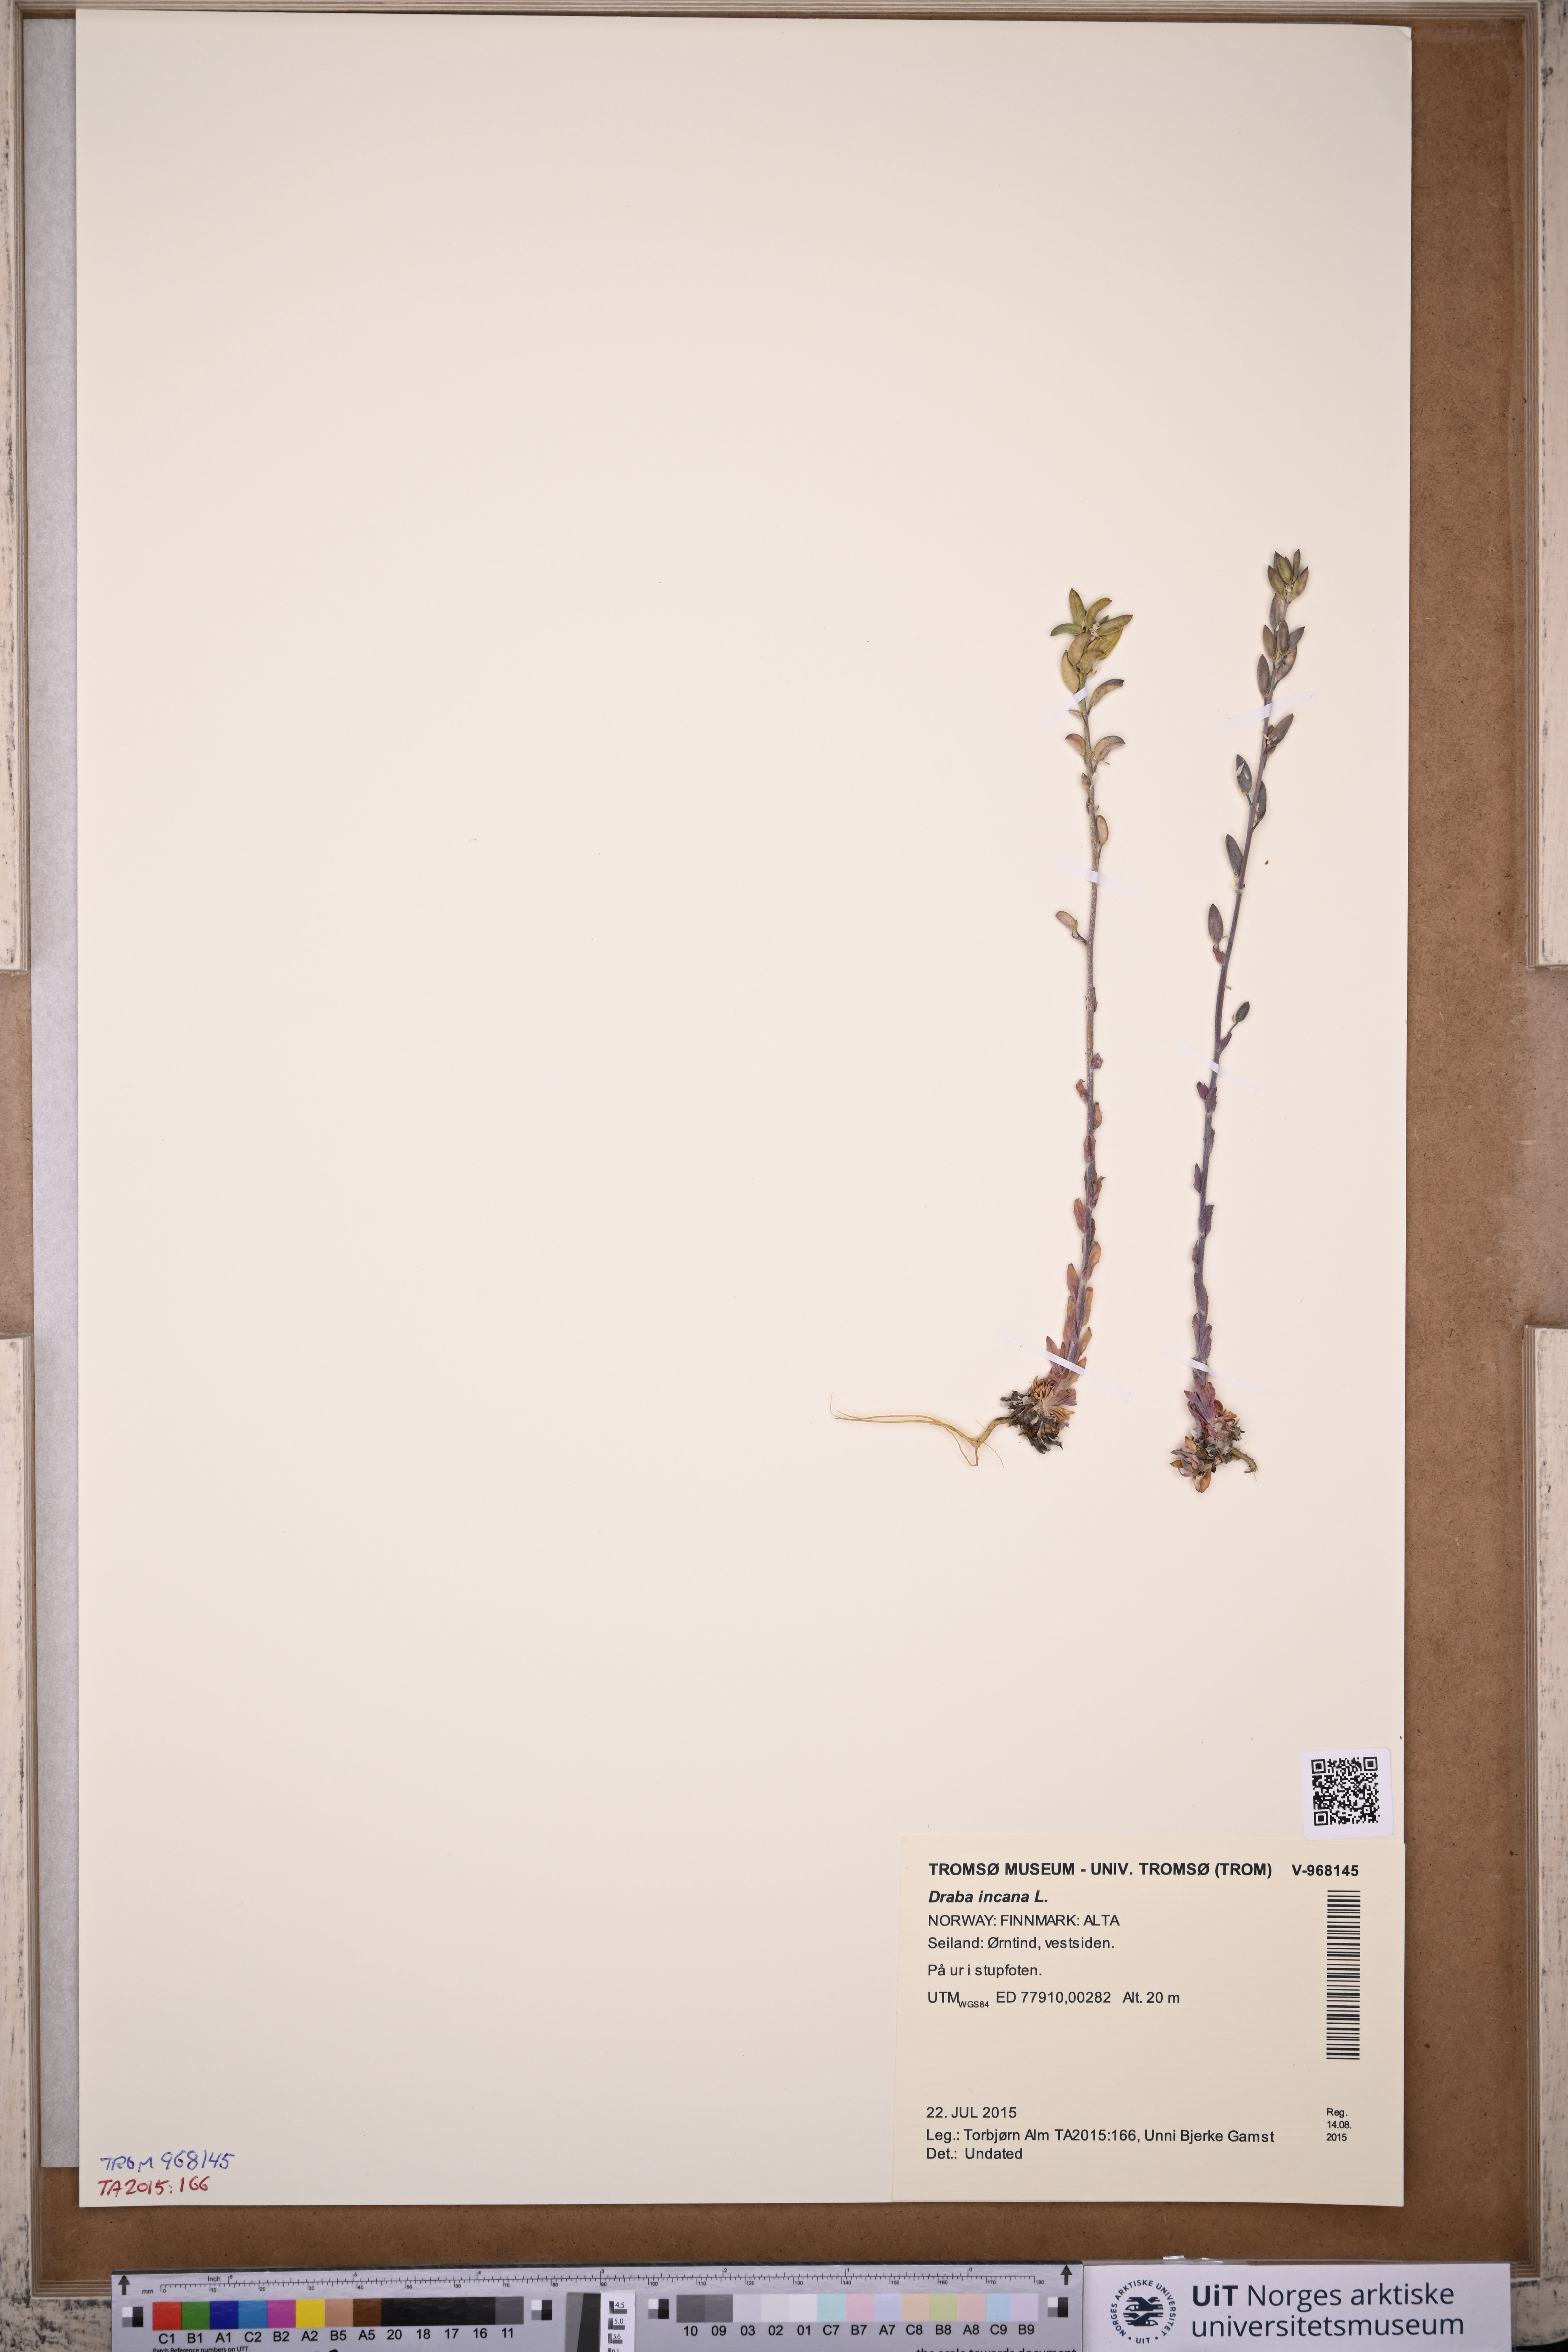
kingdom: Plantae
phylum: Tracheophyta
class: Magnoliopsida
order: Brassicales
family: Brassicaceae
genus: Draba
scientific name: Draba incana
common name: Hoary whitlow-grass
